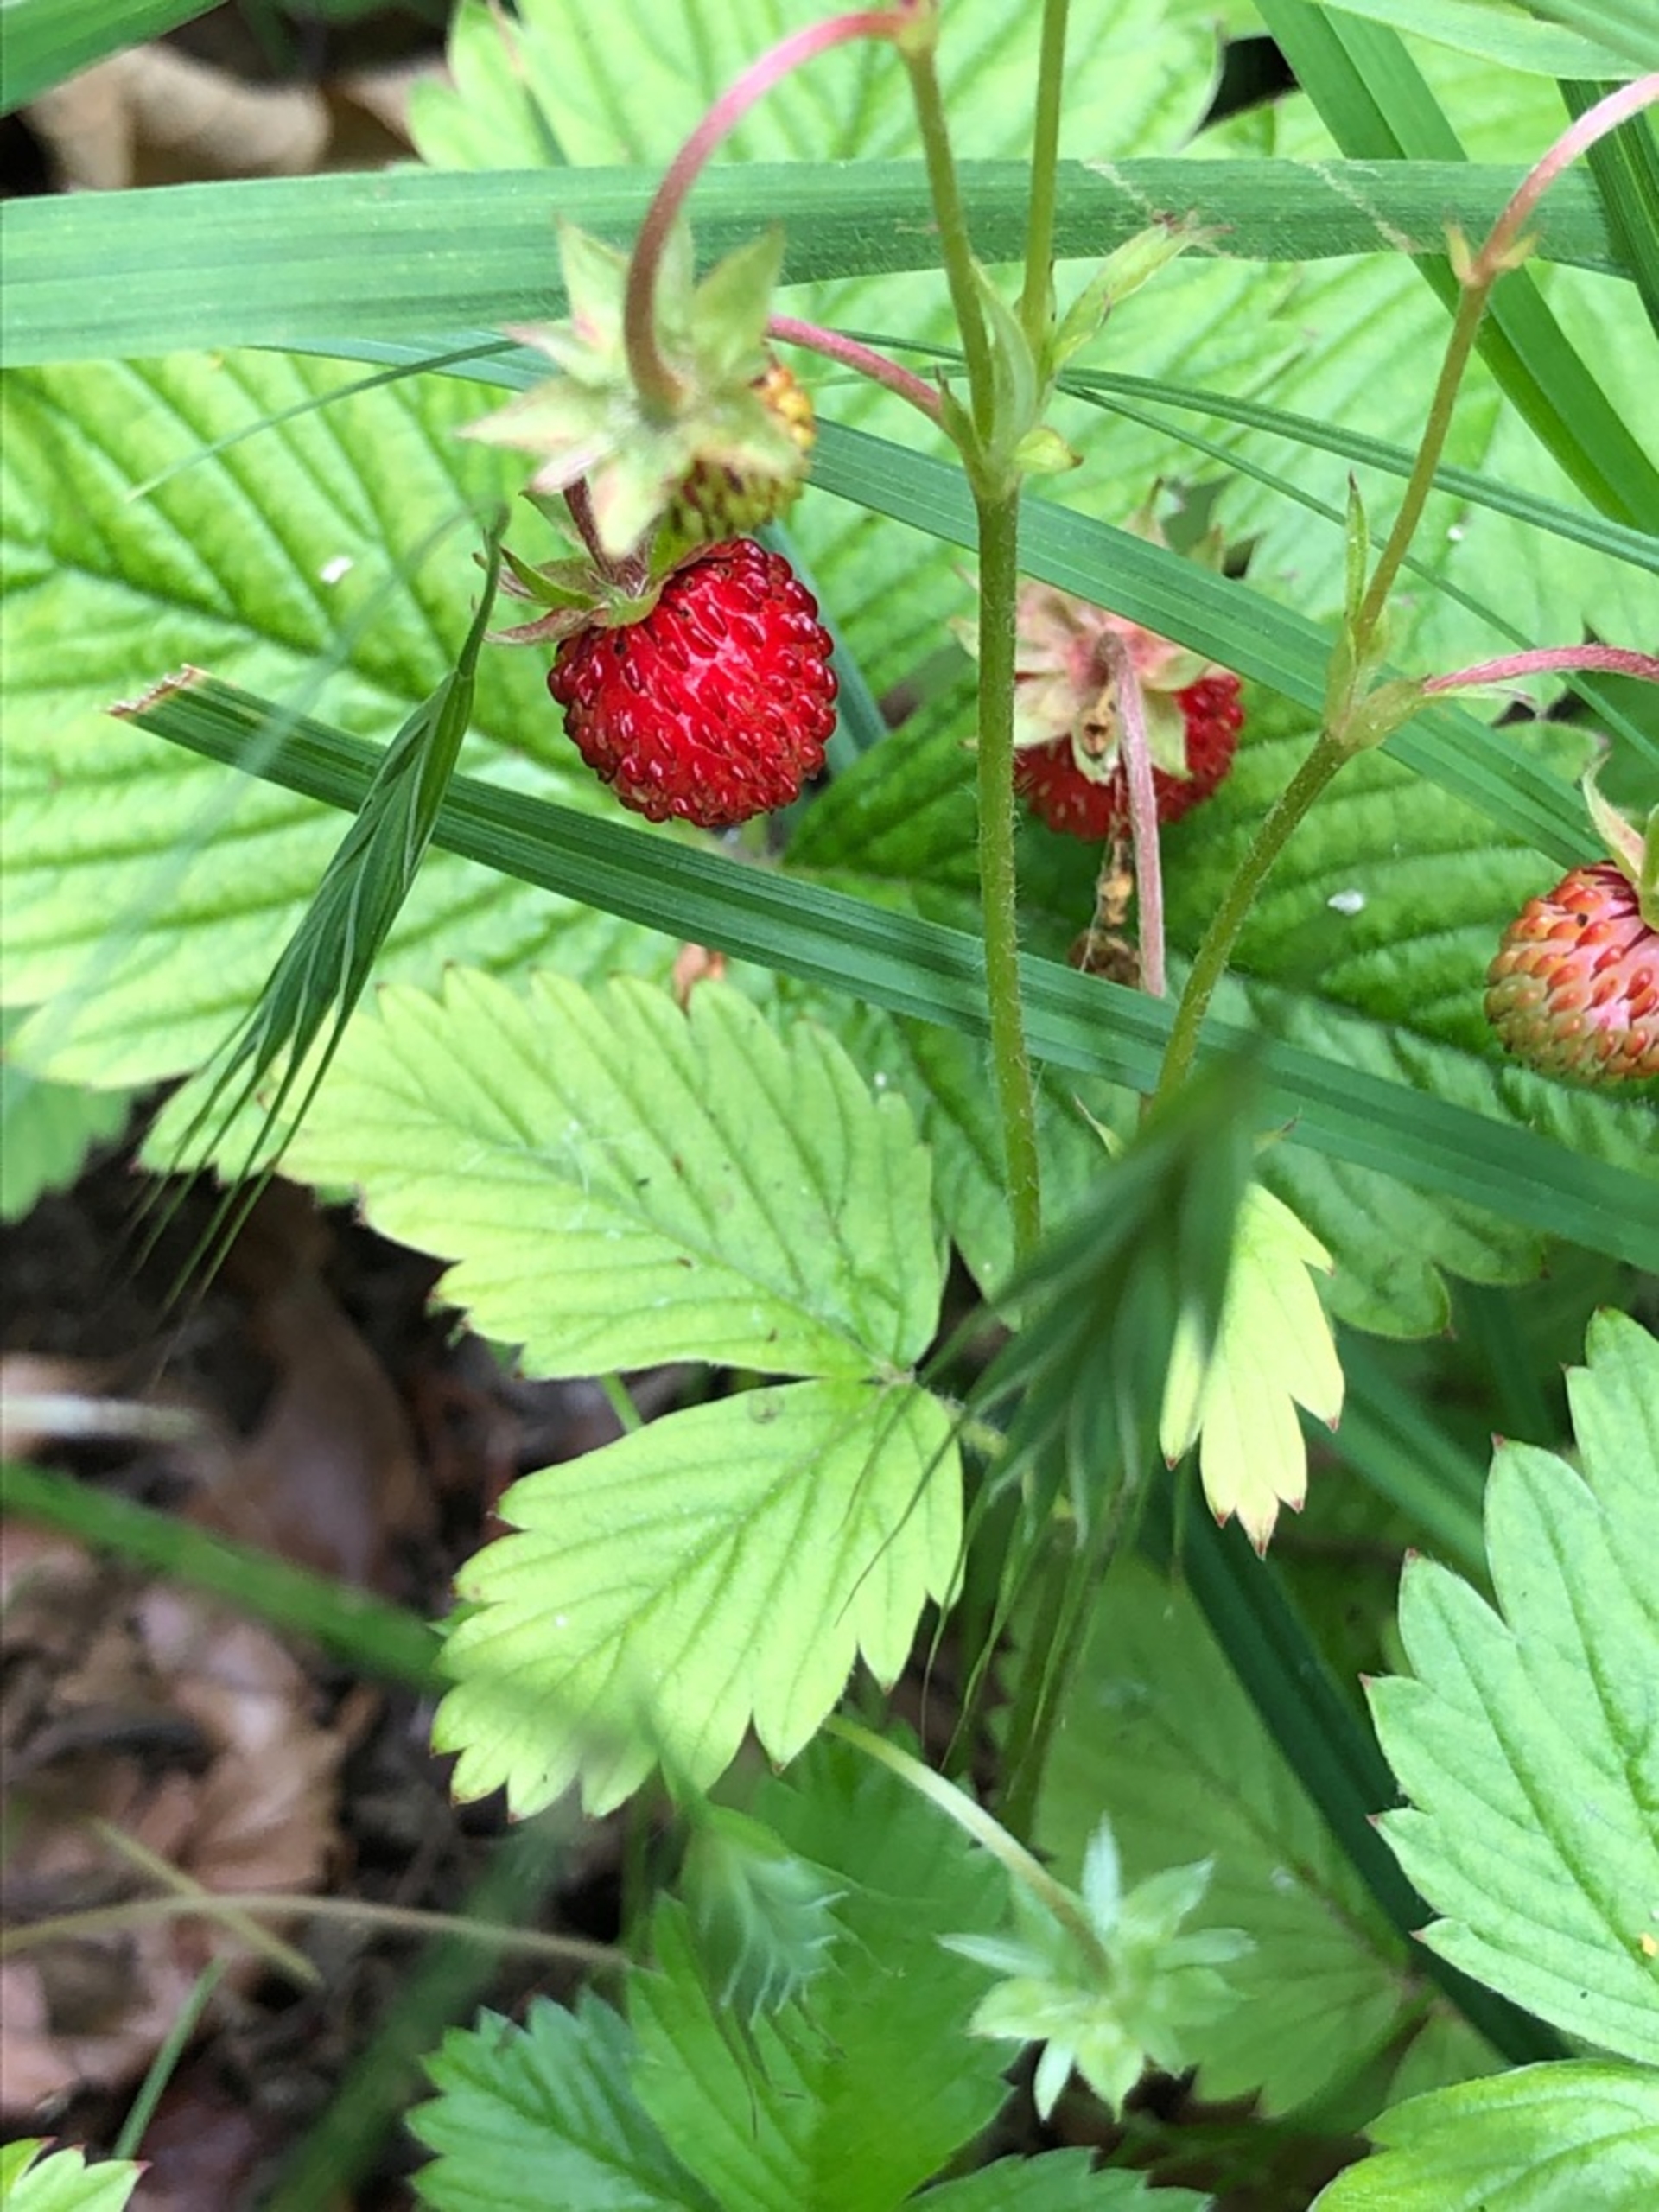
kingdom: Plantae
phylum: Tracheophyta
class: Magnoliopsida
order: Rosales
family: Rosaceae
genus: Fragaria
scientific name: Fragaria vesca
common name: Skov-jordbær
